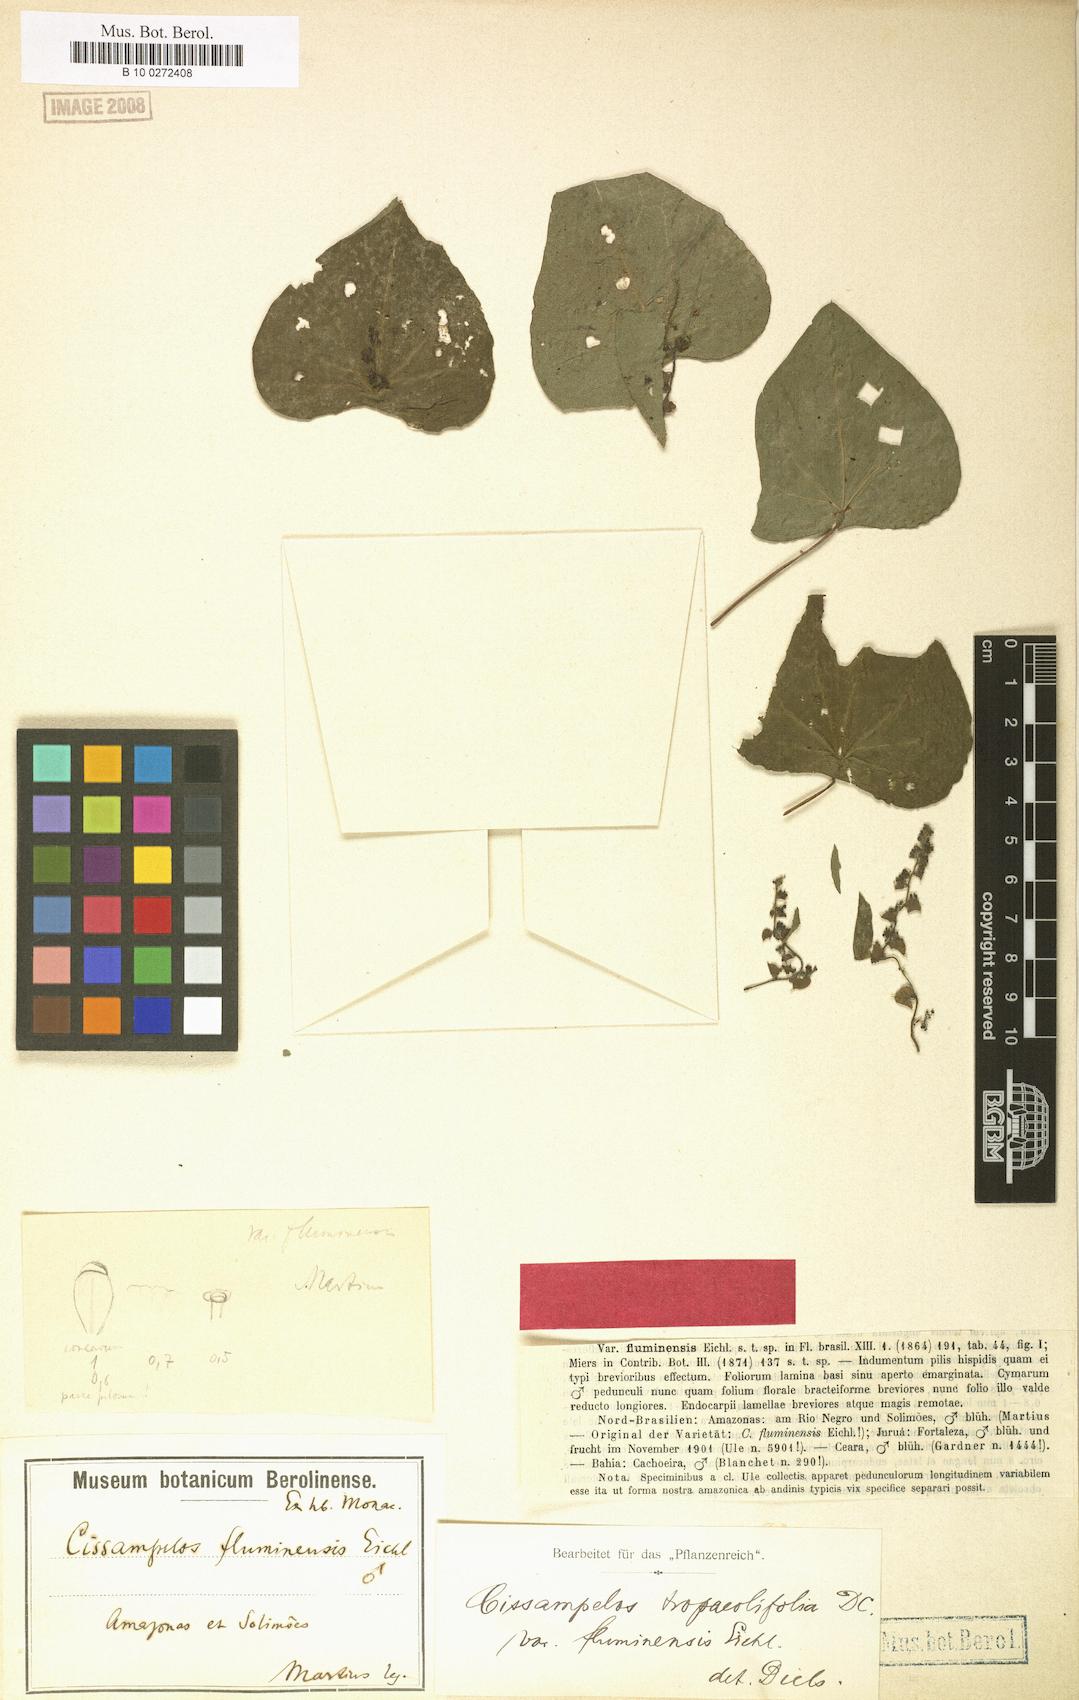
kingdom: Plantae
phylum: Tracheophyta
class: Magnoliopsida
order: Ranunculales
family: Menispermaceae
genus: Cissampelos
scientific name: Cissampelos tropaeolifolia
